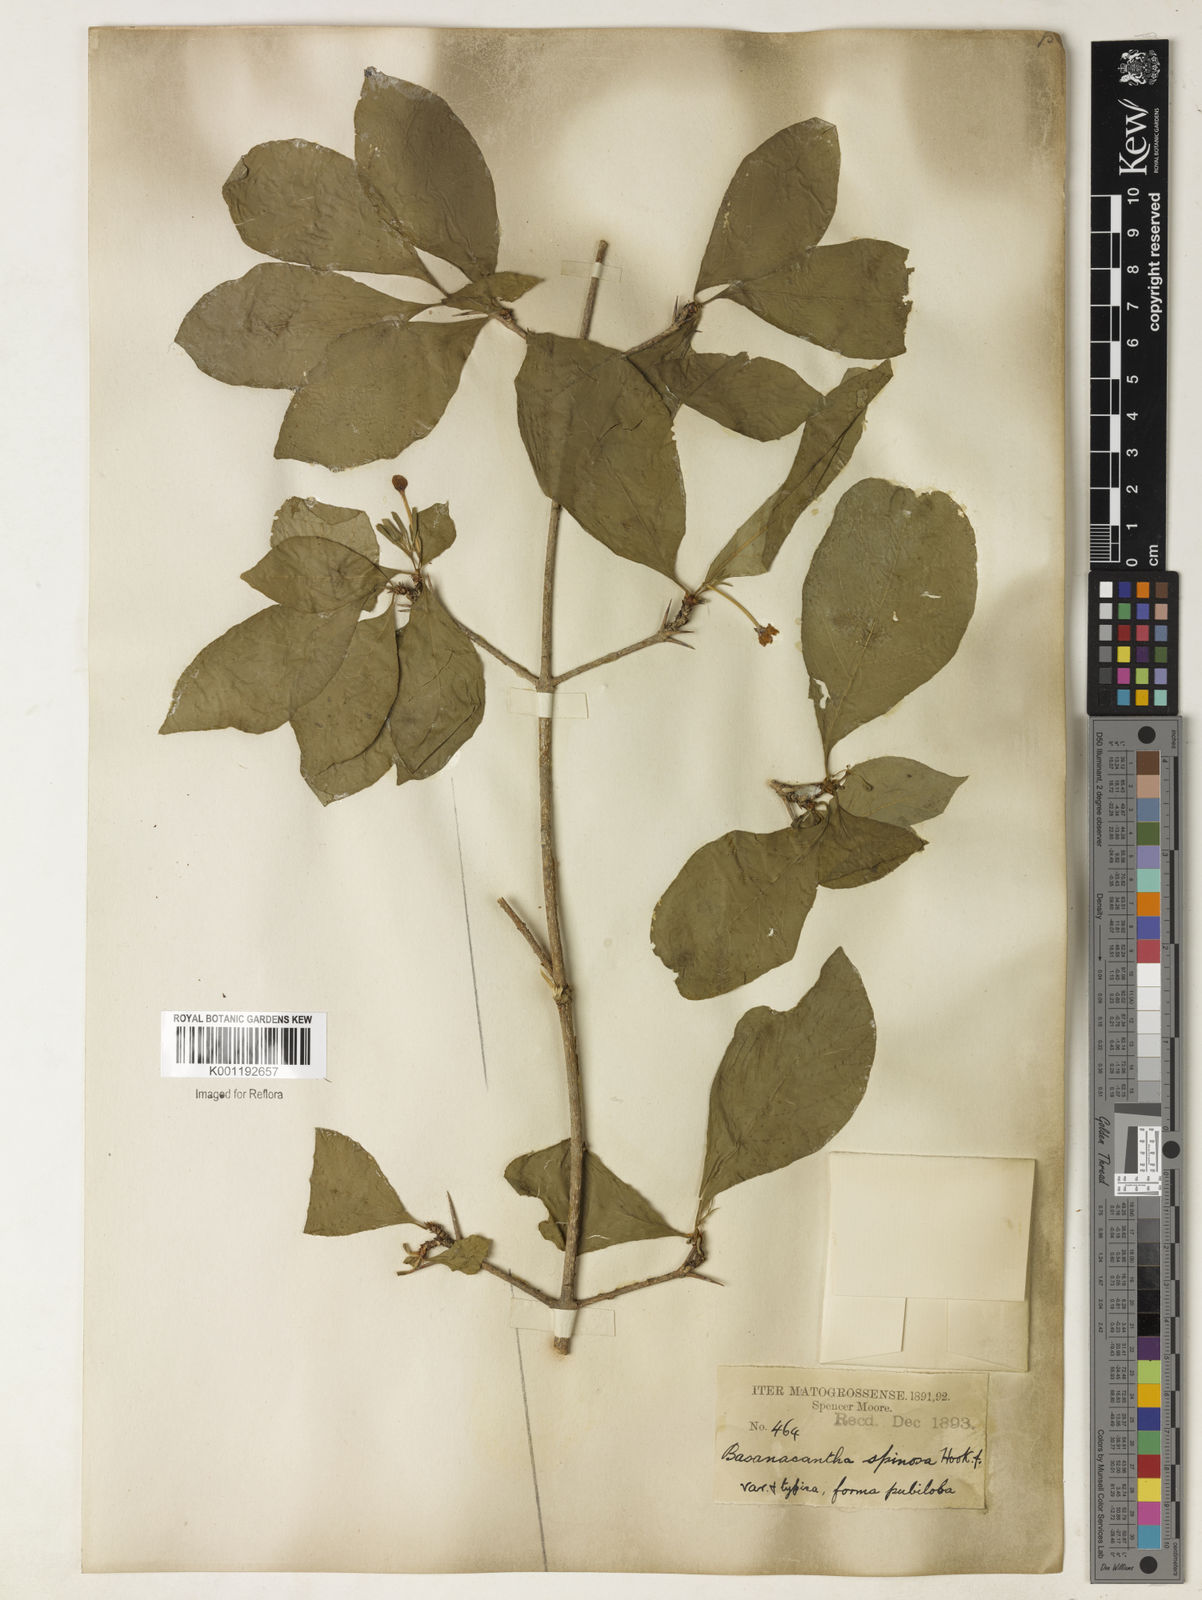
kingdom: Plantae
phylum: Tracheophyta
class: Magnoliopsida
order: Gentianales
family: Rubiaceae
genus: Randia
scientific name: Randia armata
